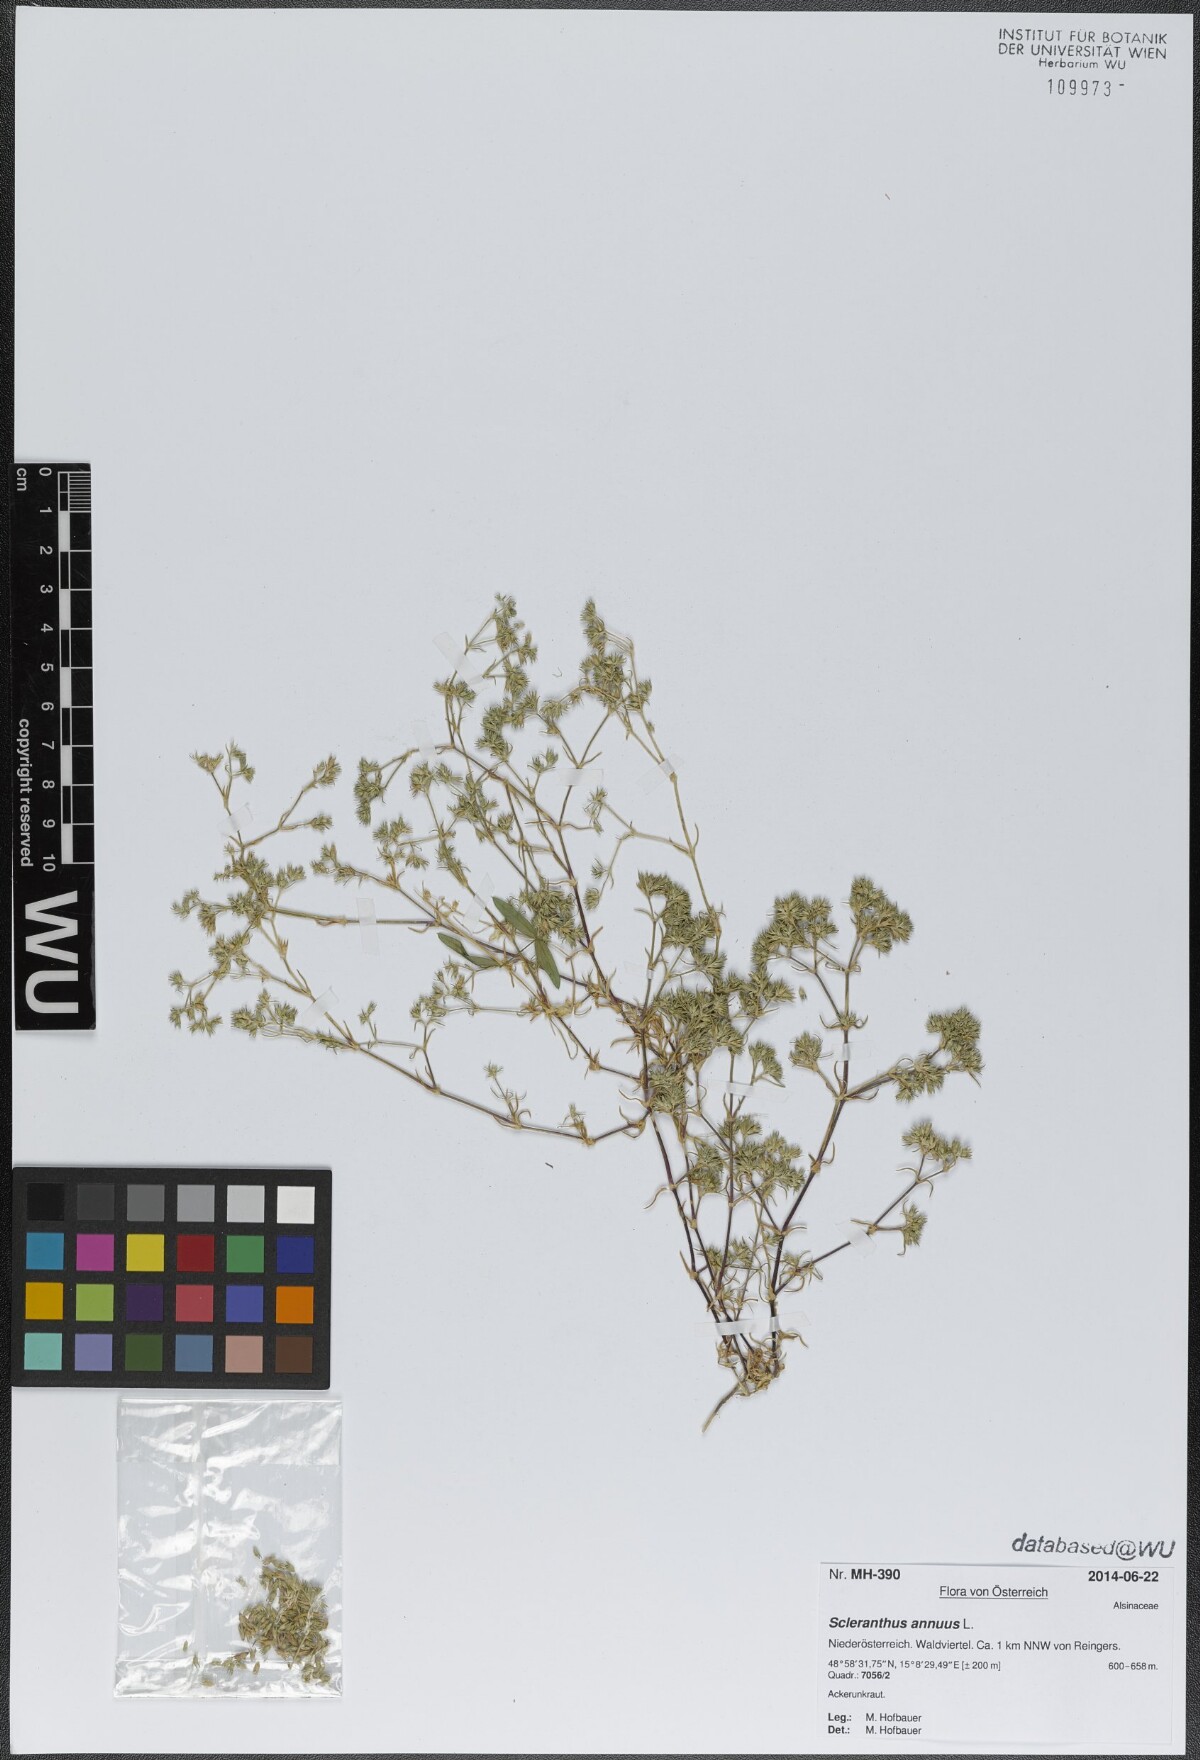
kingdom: Plantae
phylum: Tracheophyta
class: Magnoliopsida
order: Caryophyllales
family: Caryophyllaceae
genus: Scleranthus
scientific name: Scleranthus annuus
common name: Annual knawel
